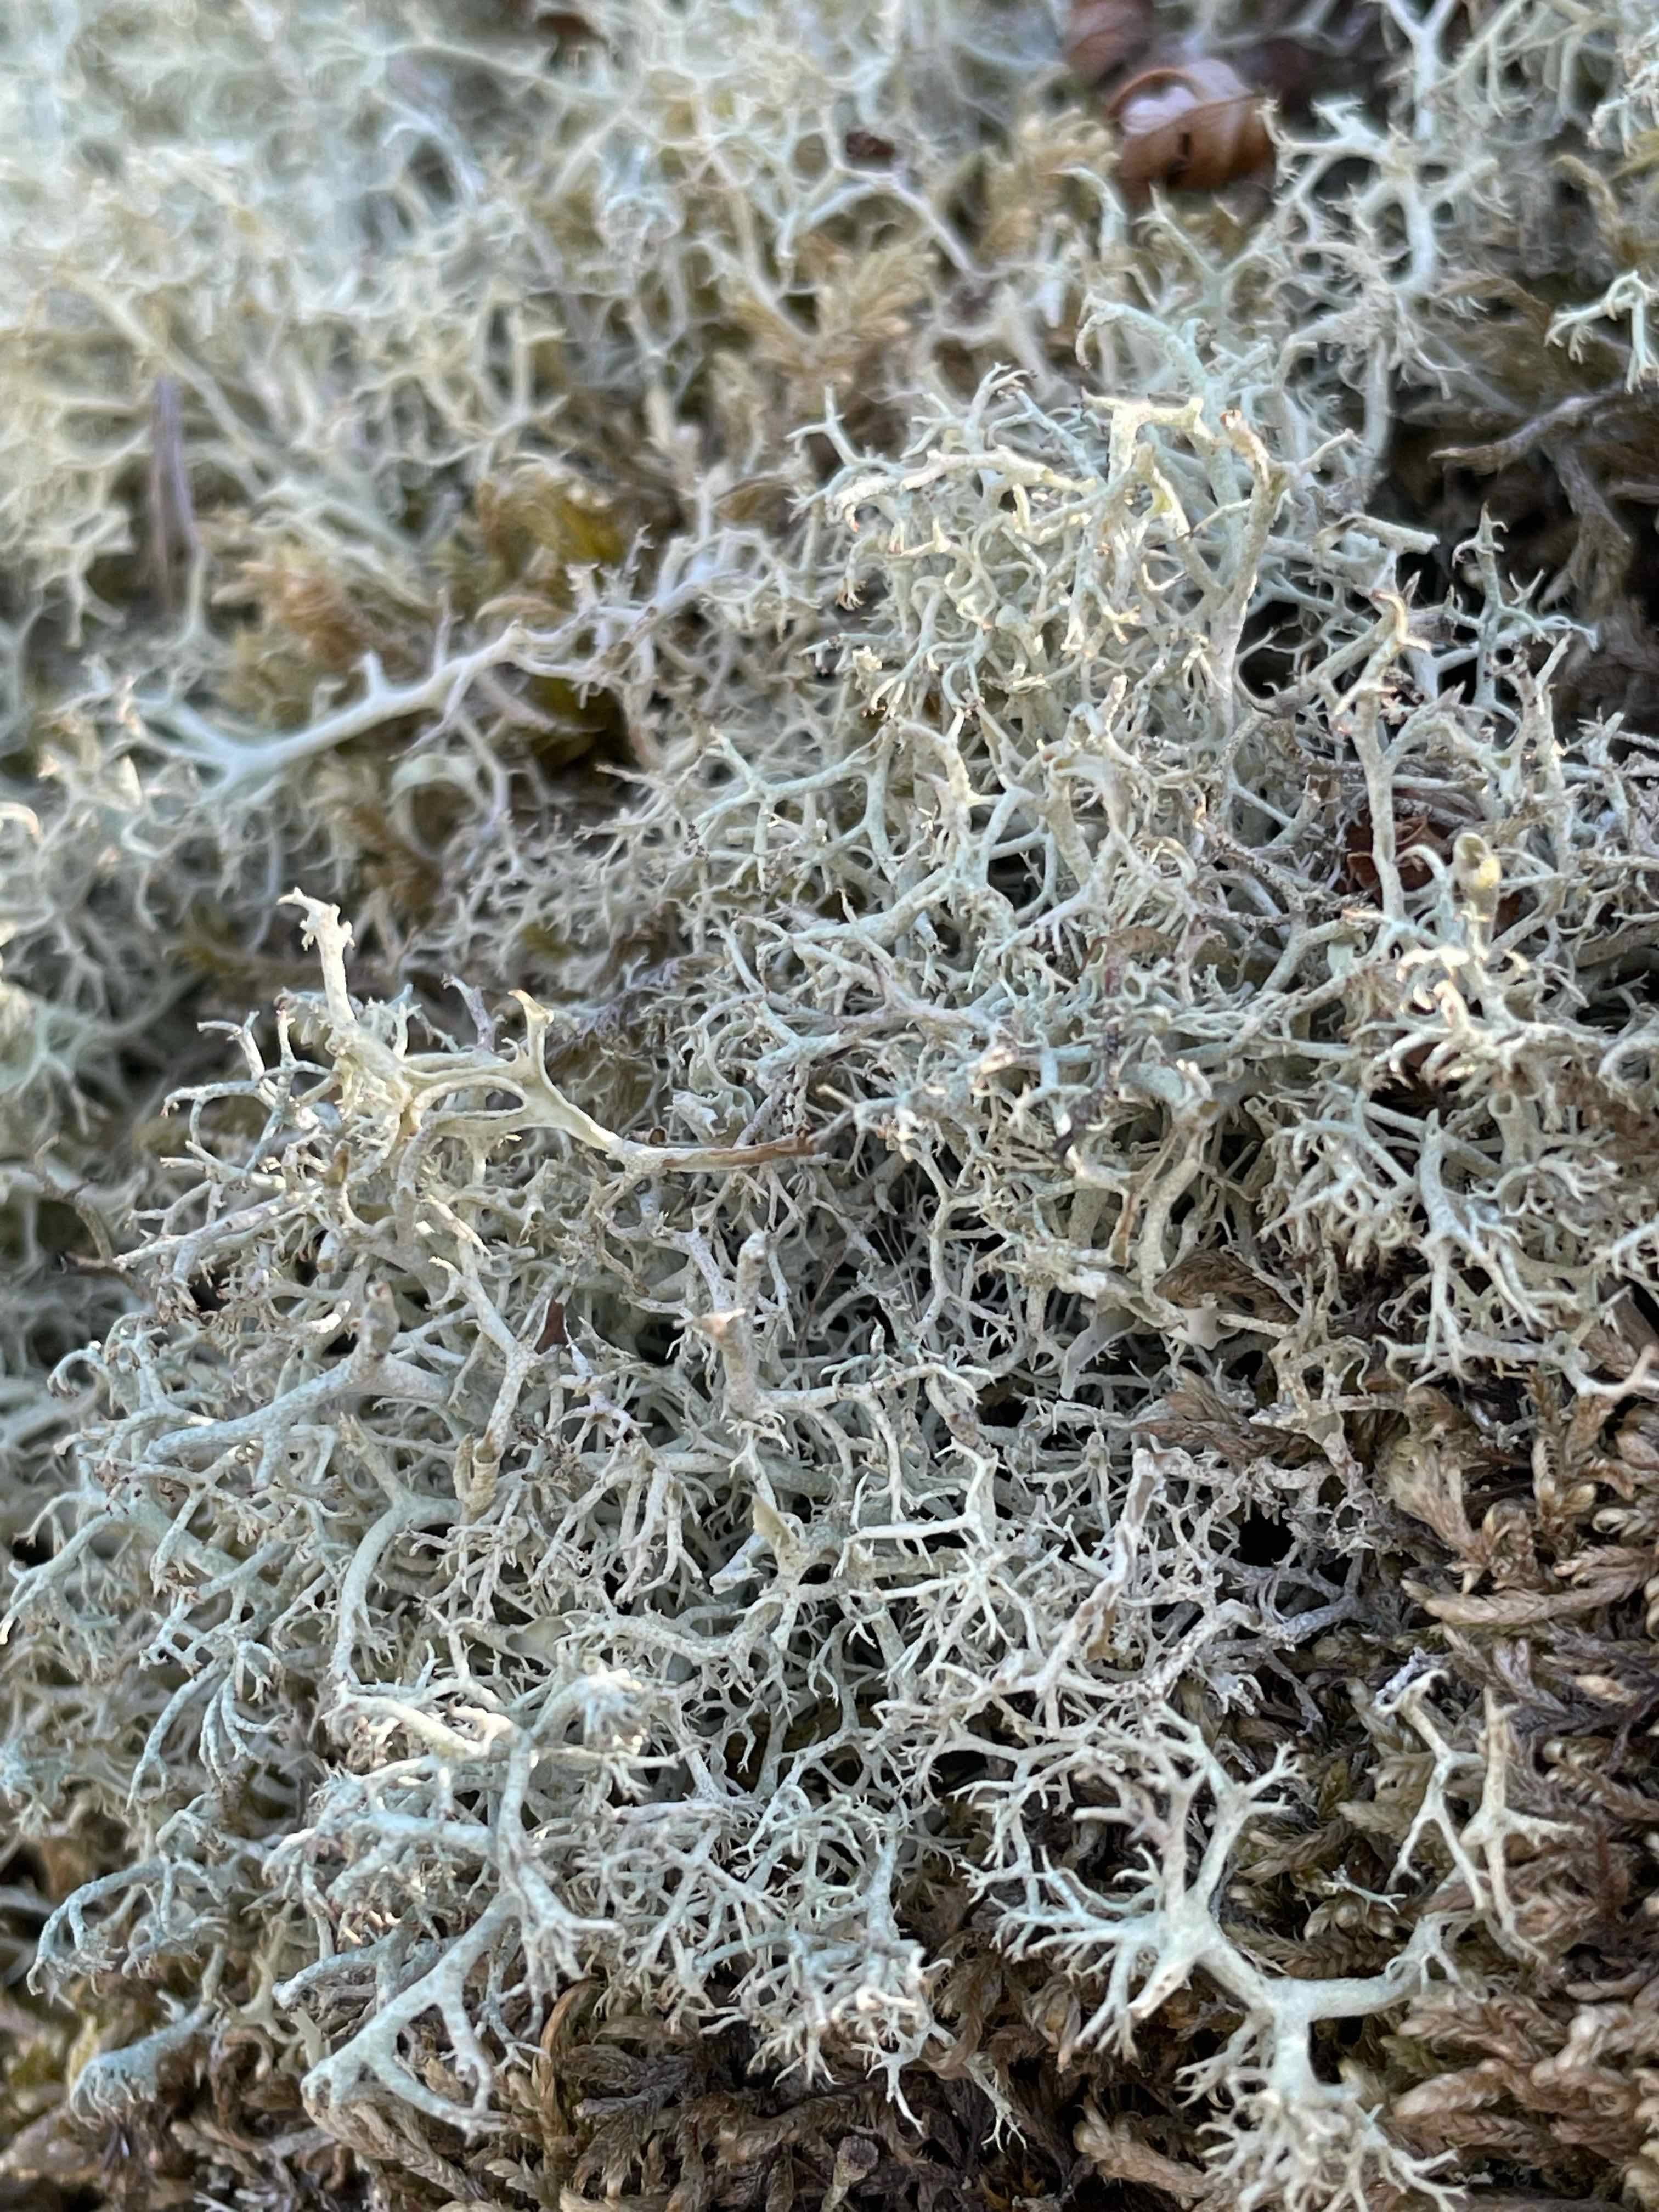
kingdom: Fungi
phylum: Ascomycota
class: Lecanoromycetes
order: Lecanorales
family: Cladoniaceae
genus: Cladonia
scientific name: Cladonia portentosa
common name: hede-rensdyrlav
